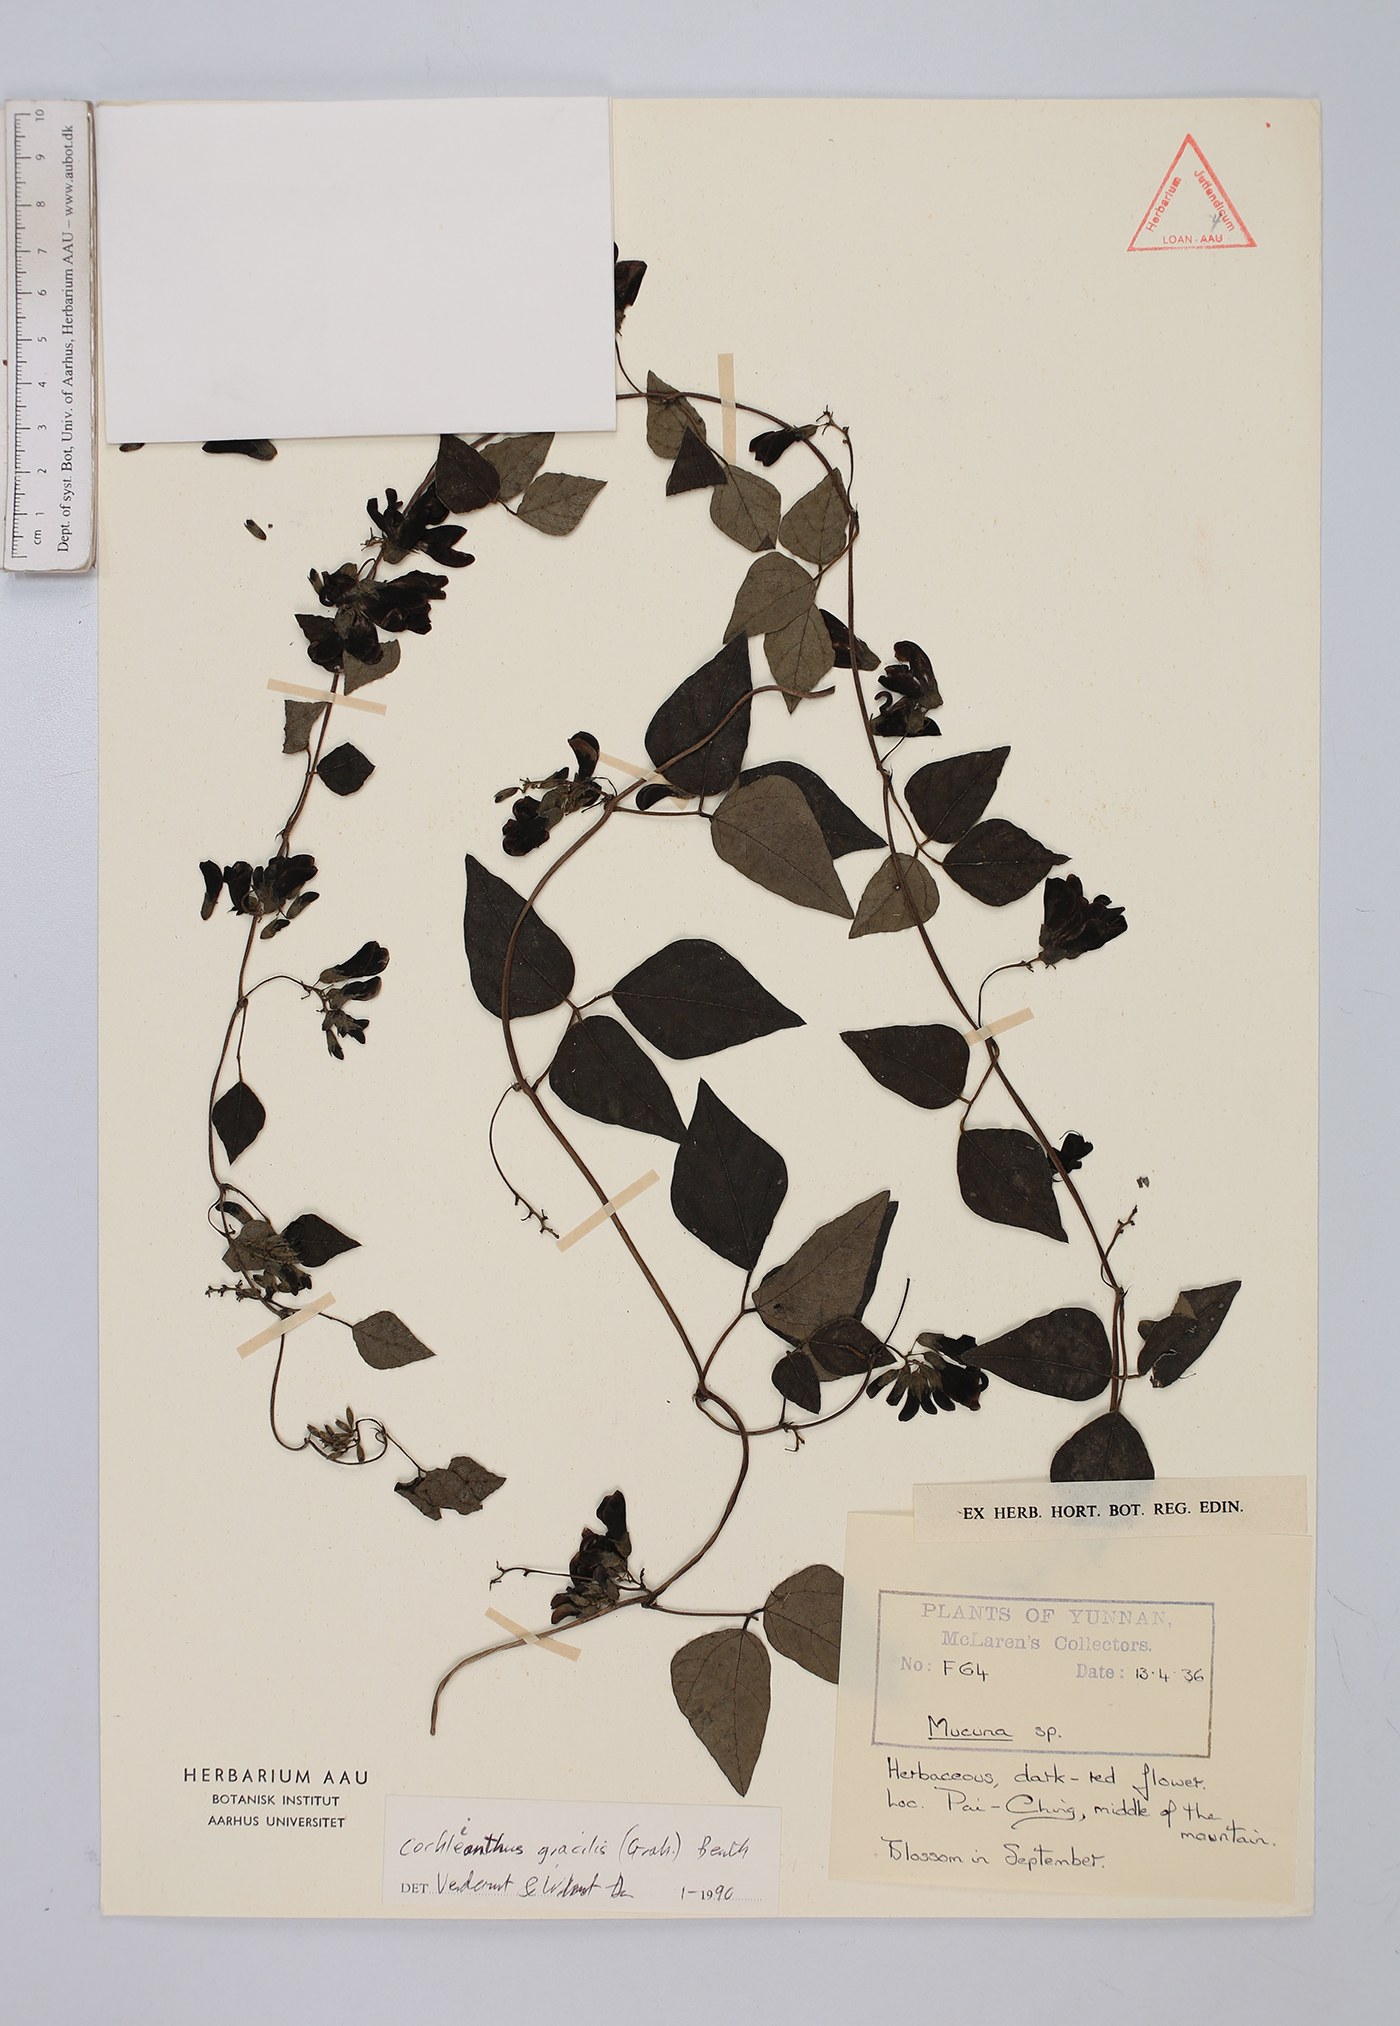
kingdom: Plantae
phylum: Tracheophyta
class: Magnoliopsida
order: Fabales
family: Fabaceae
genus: Cochlianthus
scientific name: Cochlianthus gracilis
